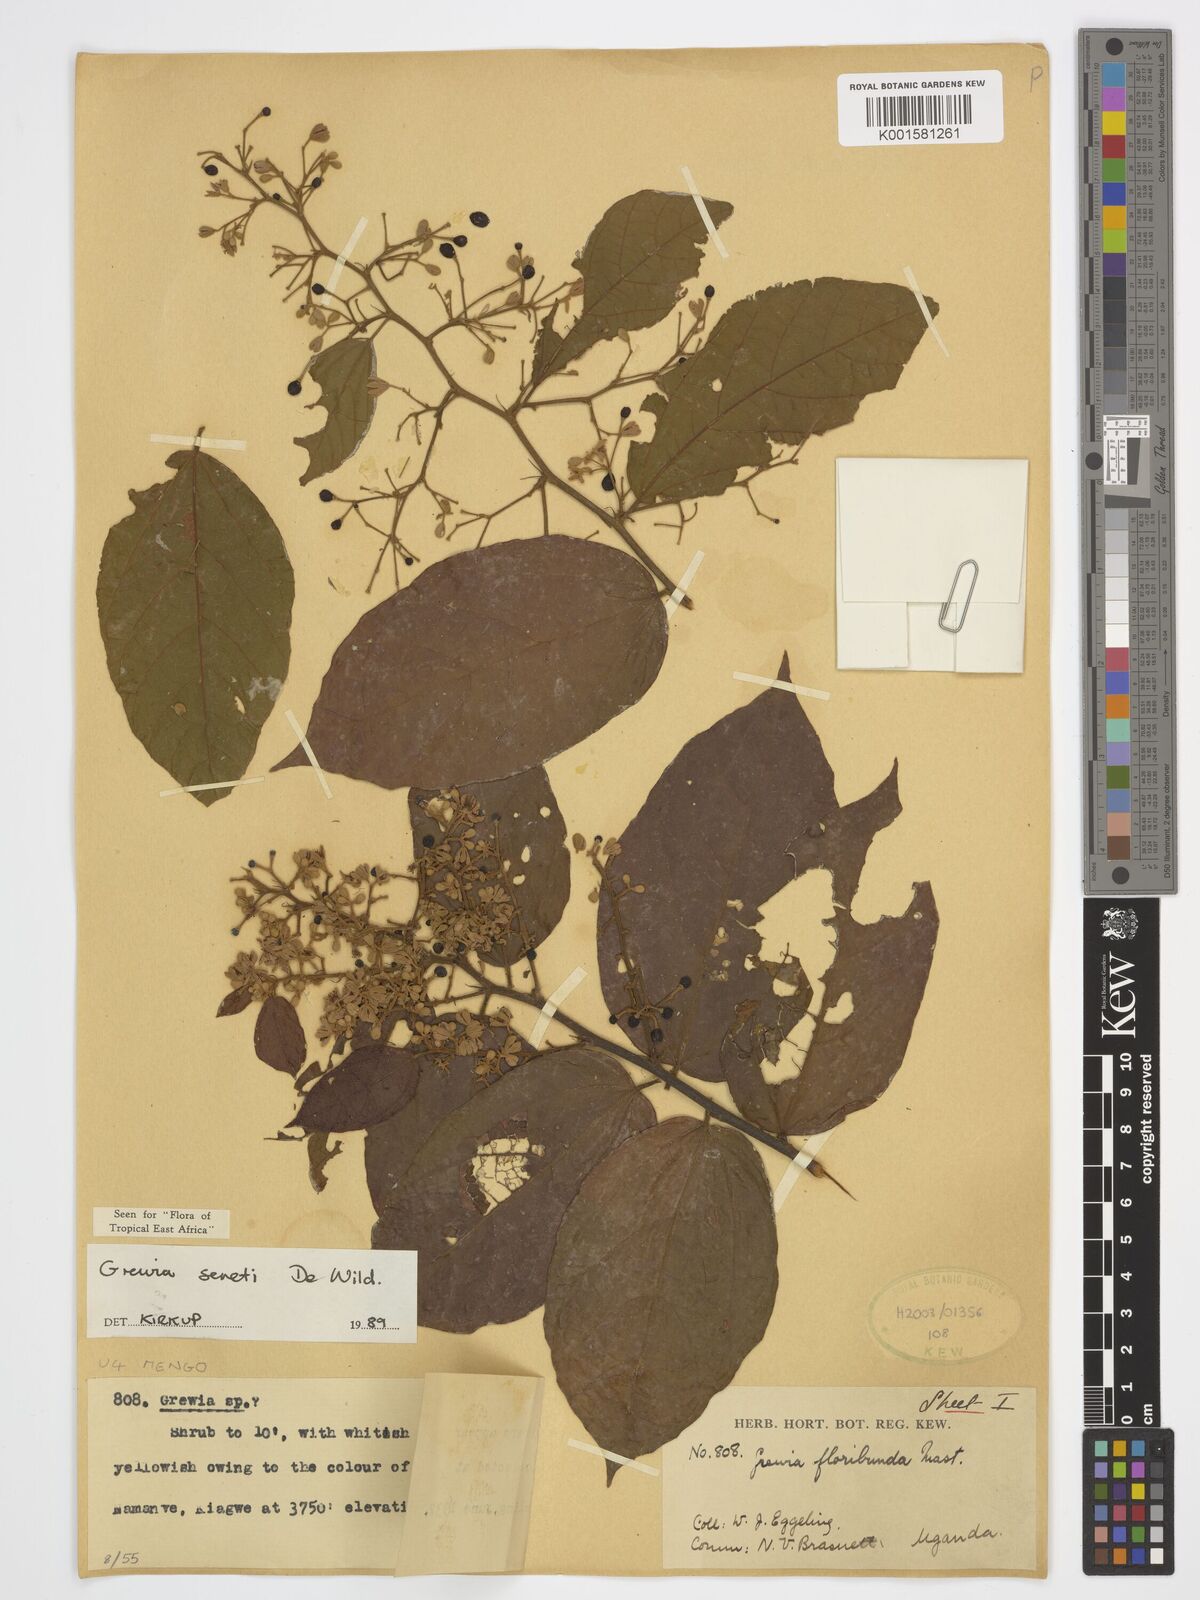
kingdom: Plantae
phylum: Tracheophyta
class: Magnoliopsida
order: Malvales
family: Malvaceae
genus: Microcos
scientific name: Microcos seretii
